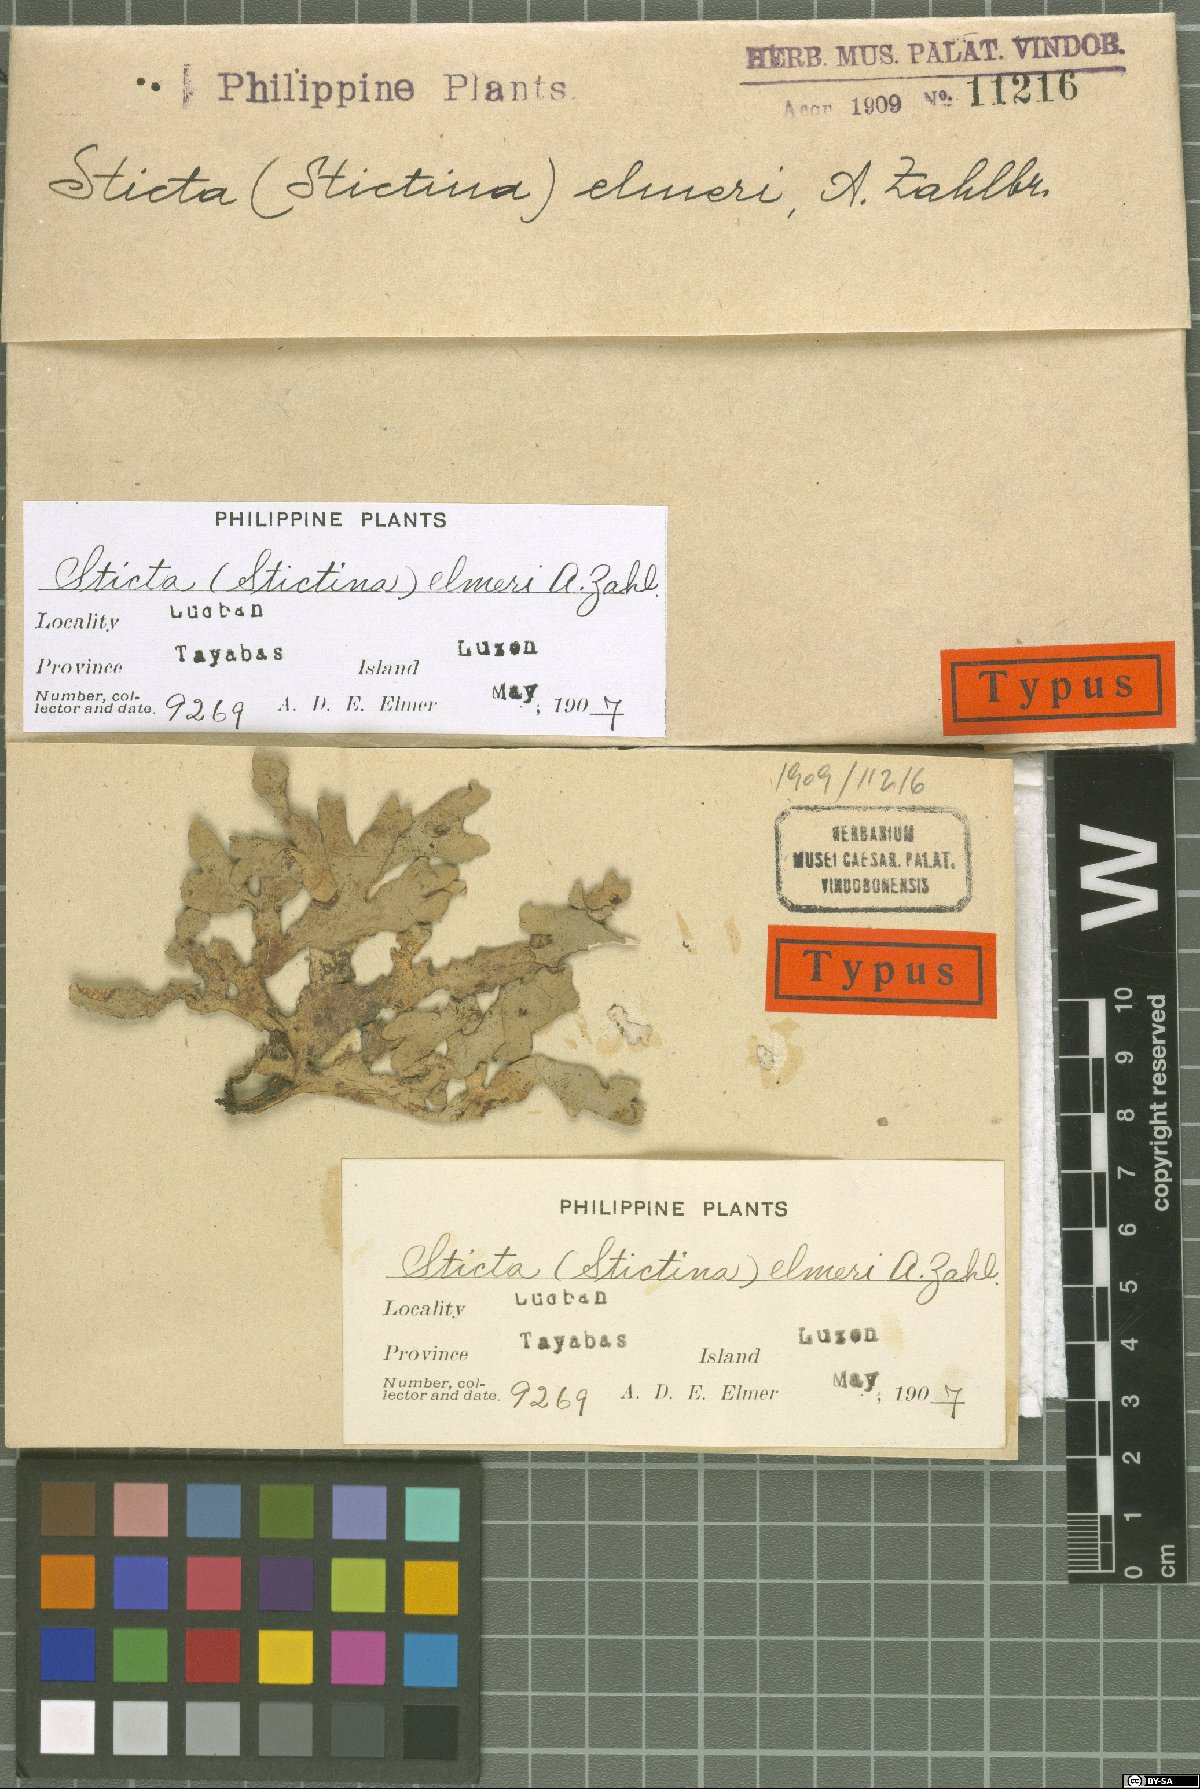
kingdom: Fungi
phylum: Ascomycota
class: Lecanoromycetes
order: Peltigerales
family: Lobariaceae
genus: Sticta
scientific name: Sticta
